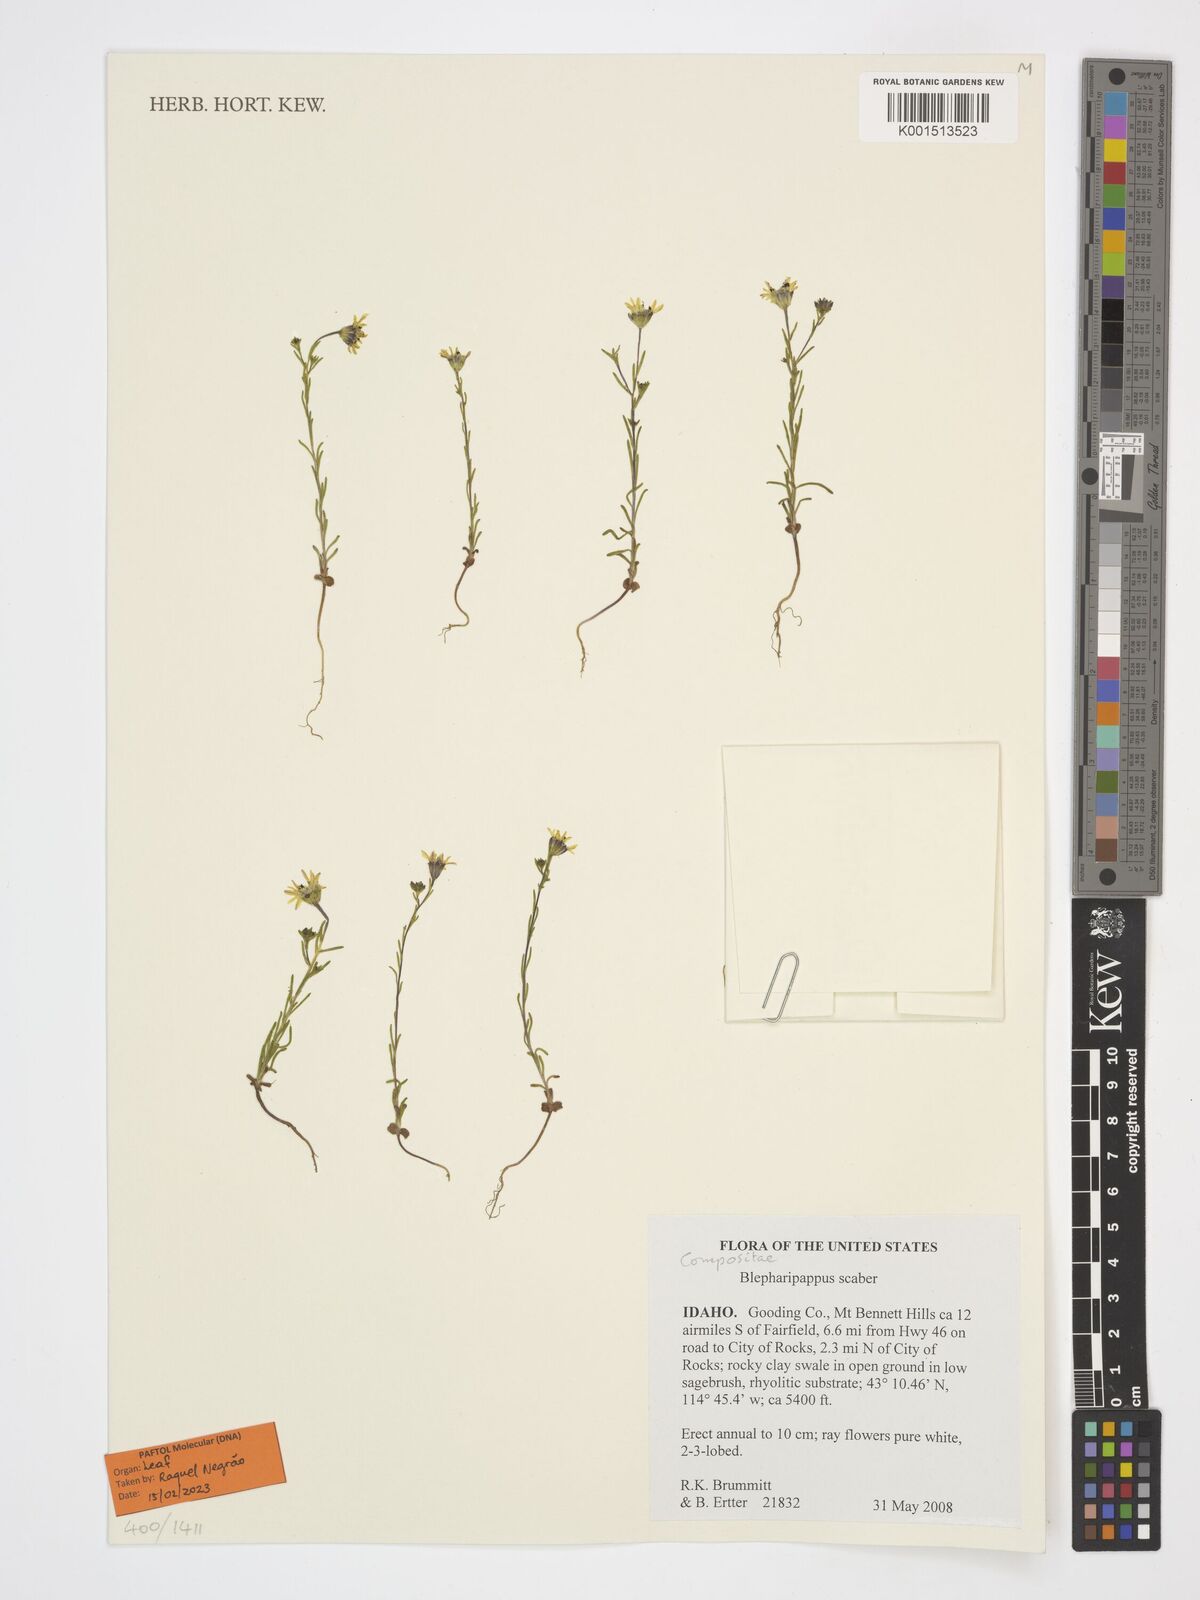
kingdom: Plantae
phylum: Tracheophyta
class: Magnoliopsida
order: Asterales
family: Asteraceae
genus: Blepharipappus
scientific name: Blepharipappus scaber
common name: Rough blepharipappus
